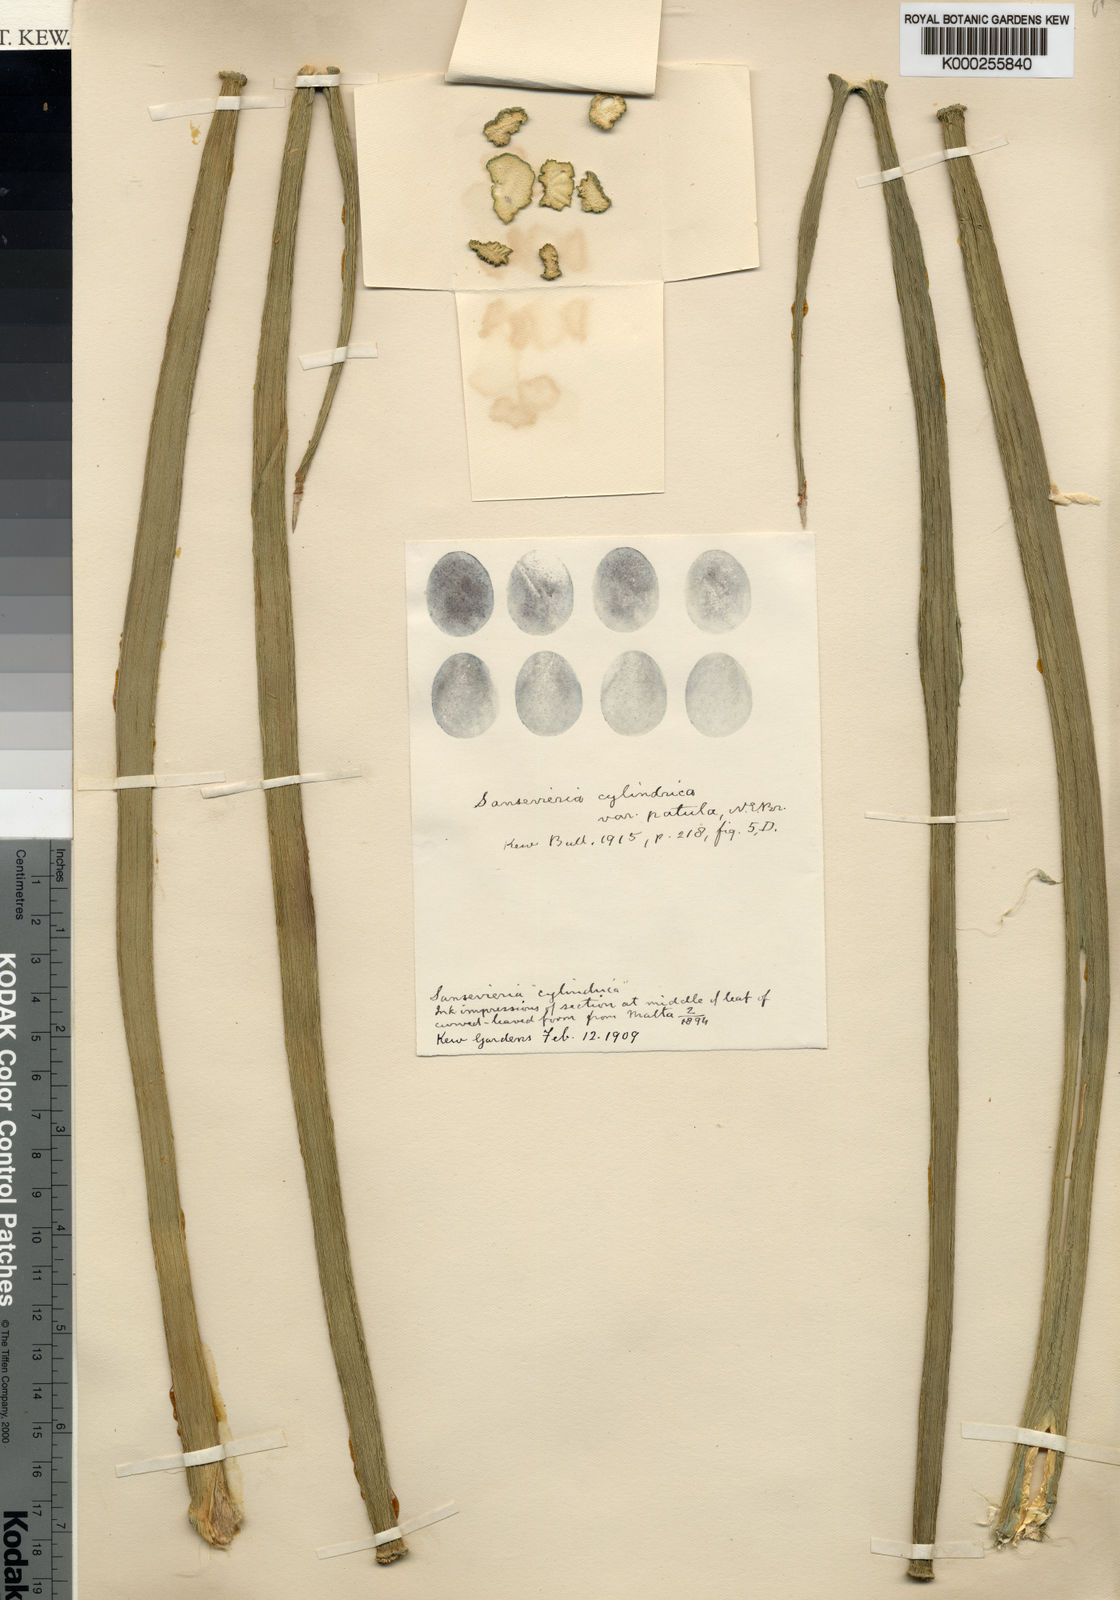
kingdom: Plantae
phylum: Tracheophyta
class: Liliopsida
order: Asparagales
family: Asparagaceae
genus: Dracaena
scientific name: Dracaena angolensis
